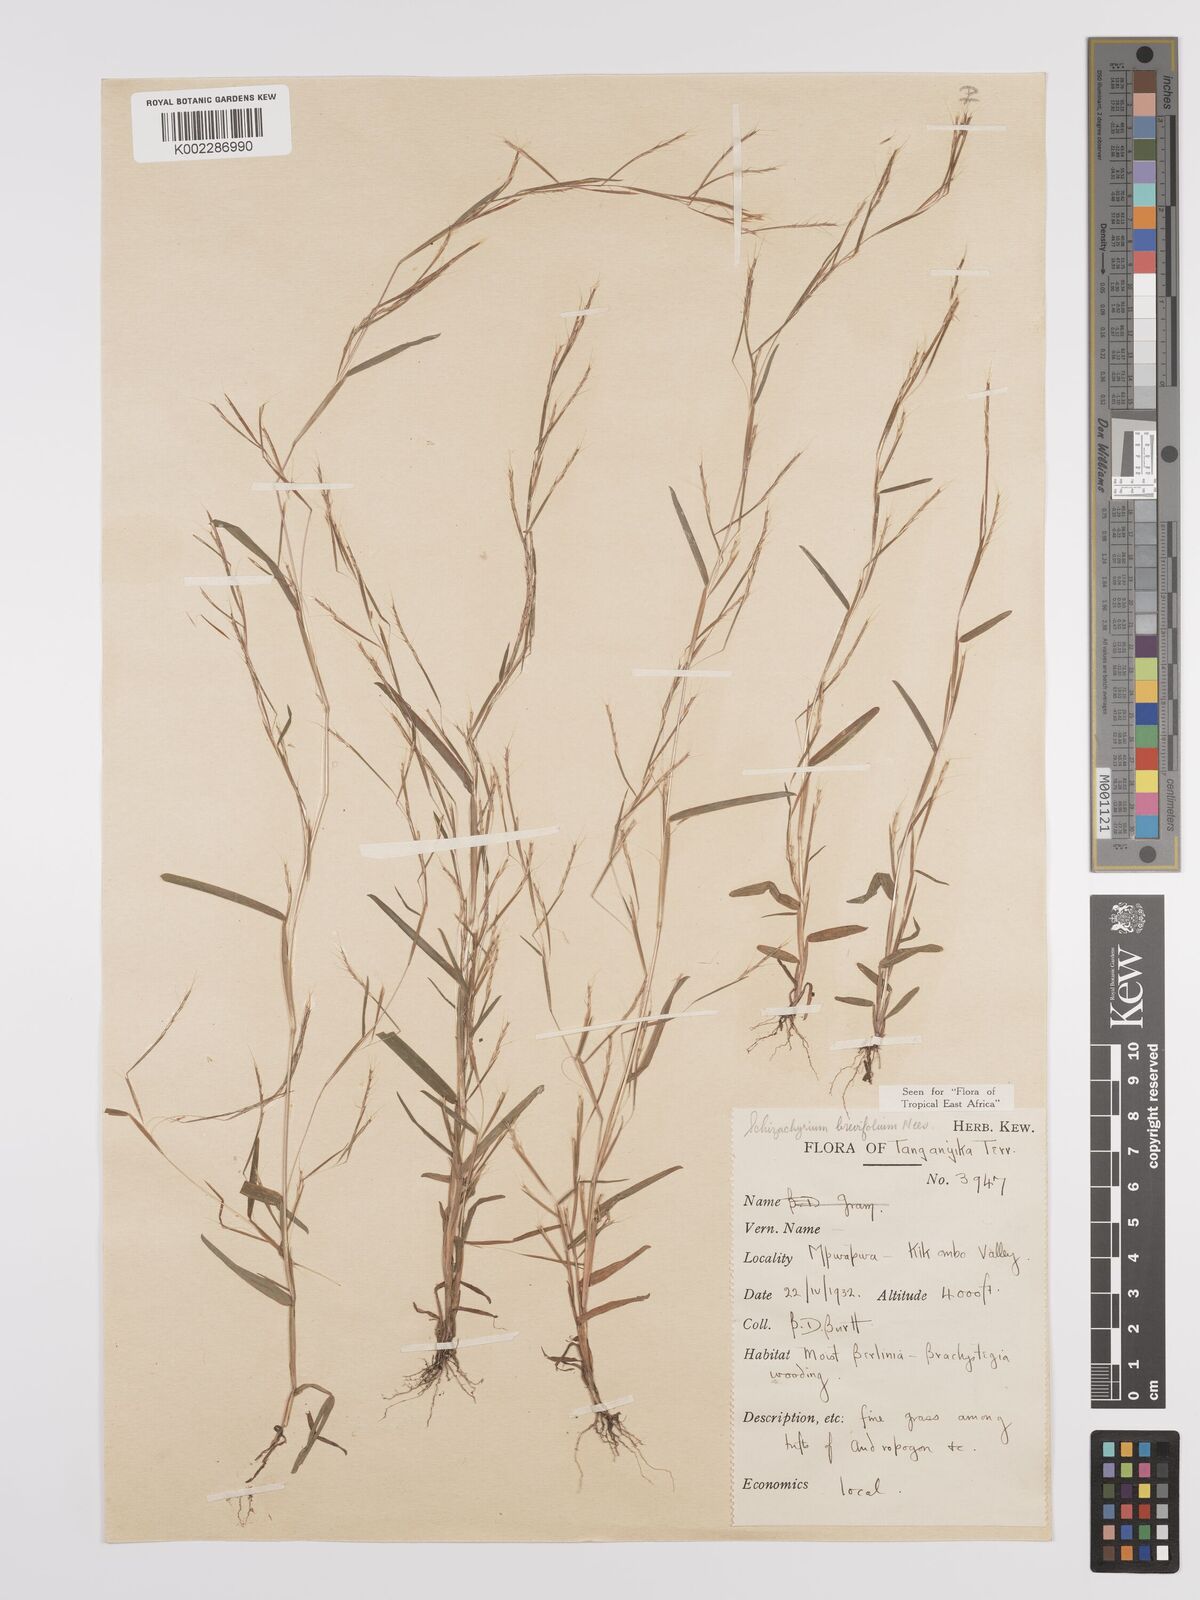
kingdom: Plantae
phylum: Tracheophyta
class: Liliopsida
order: Poales
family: Poaceae
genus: Schizachyrium
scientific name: Schizachyrium brevifolium
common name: Serillo dulce
